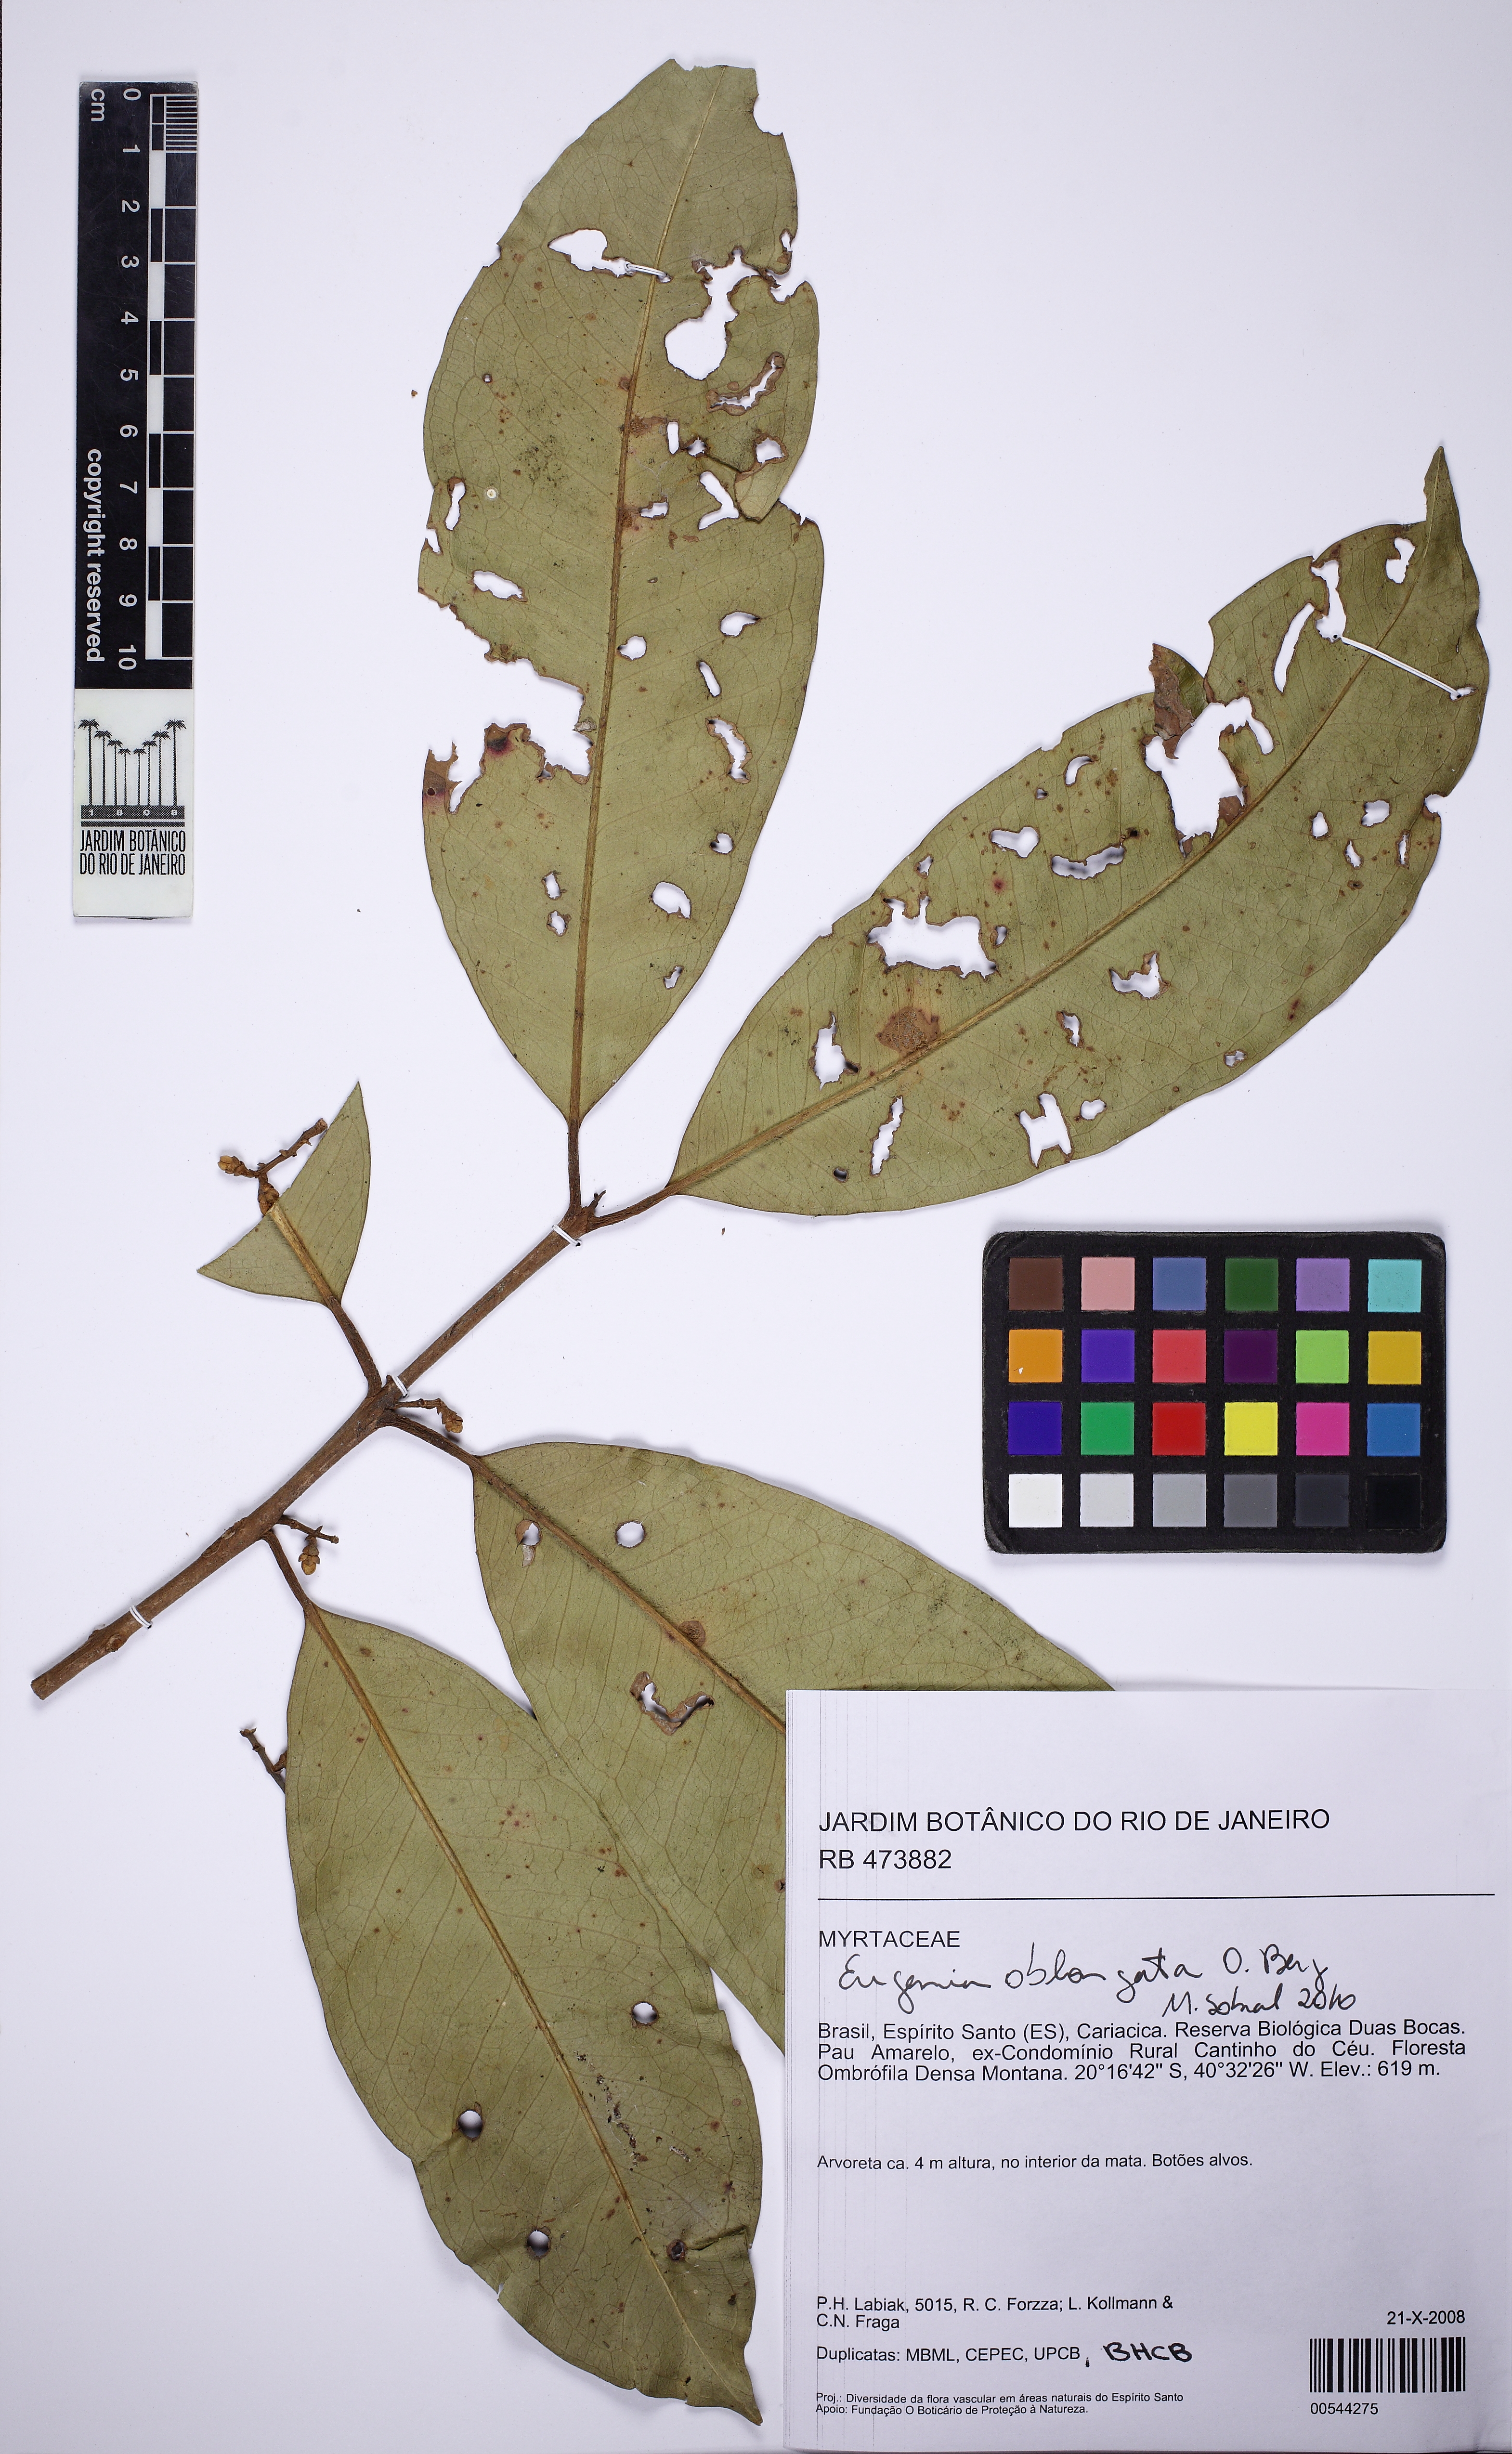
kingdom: Plantae
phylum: Tracheophyta
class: Magnoliopsida
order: Myrtales
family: Myrtaceae
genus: Eugenia
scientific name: Eugenia oblongata
